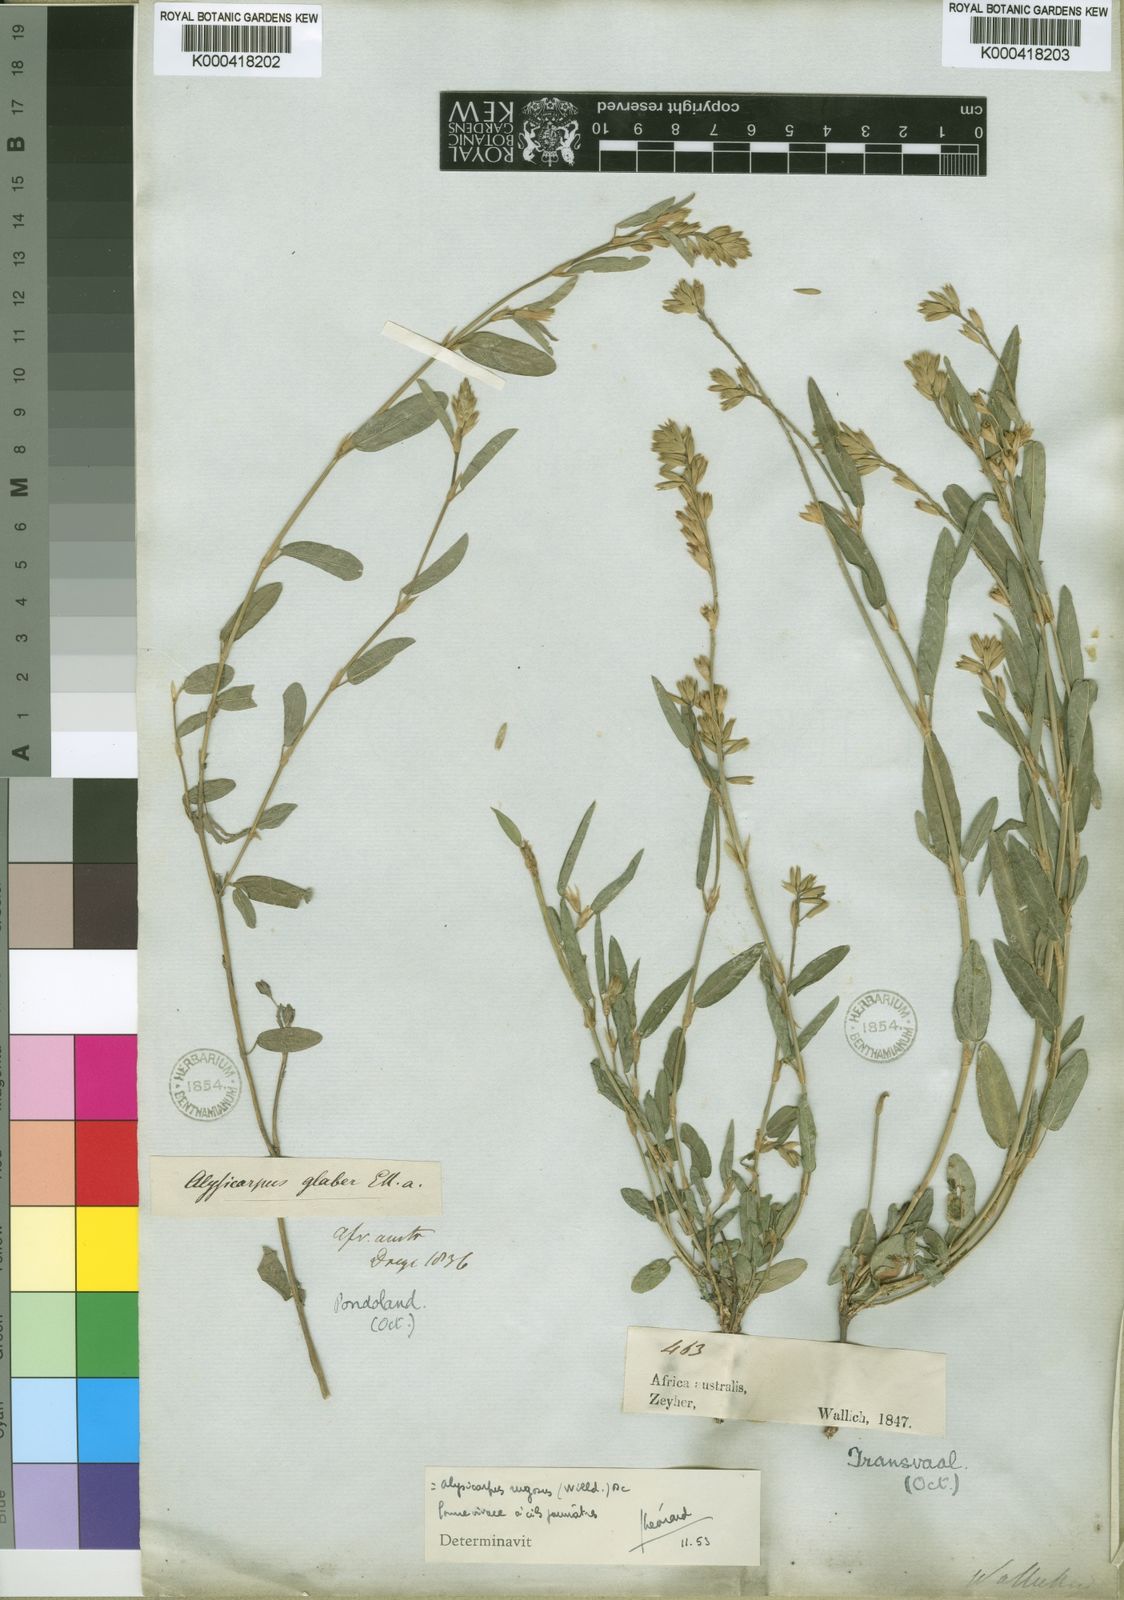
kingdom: Plantae
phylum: Tracheophyta
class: Magnoliopsida
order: Fabales
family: Fabaceae
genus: Alysicarpus
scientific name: Alysicarpus rugosus
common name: Red moneywort
